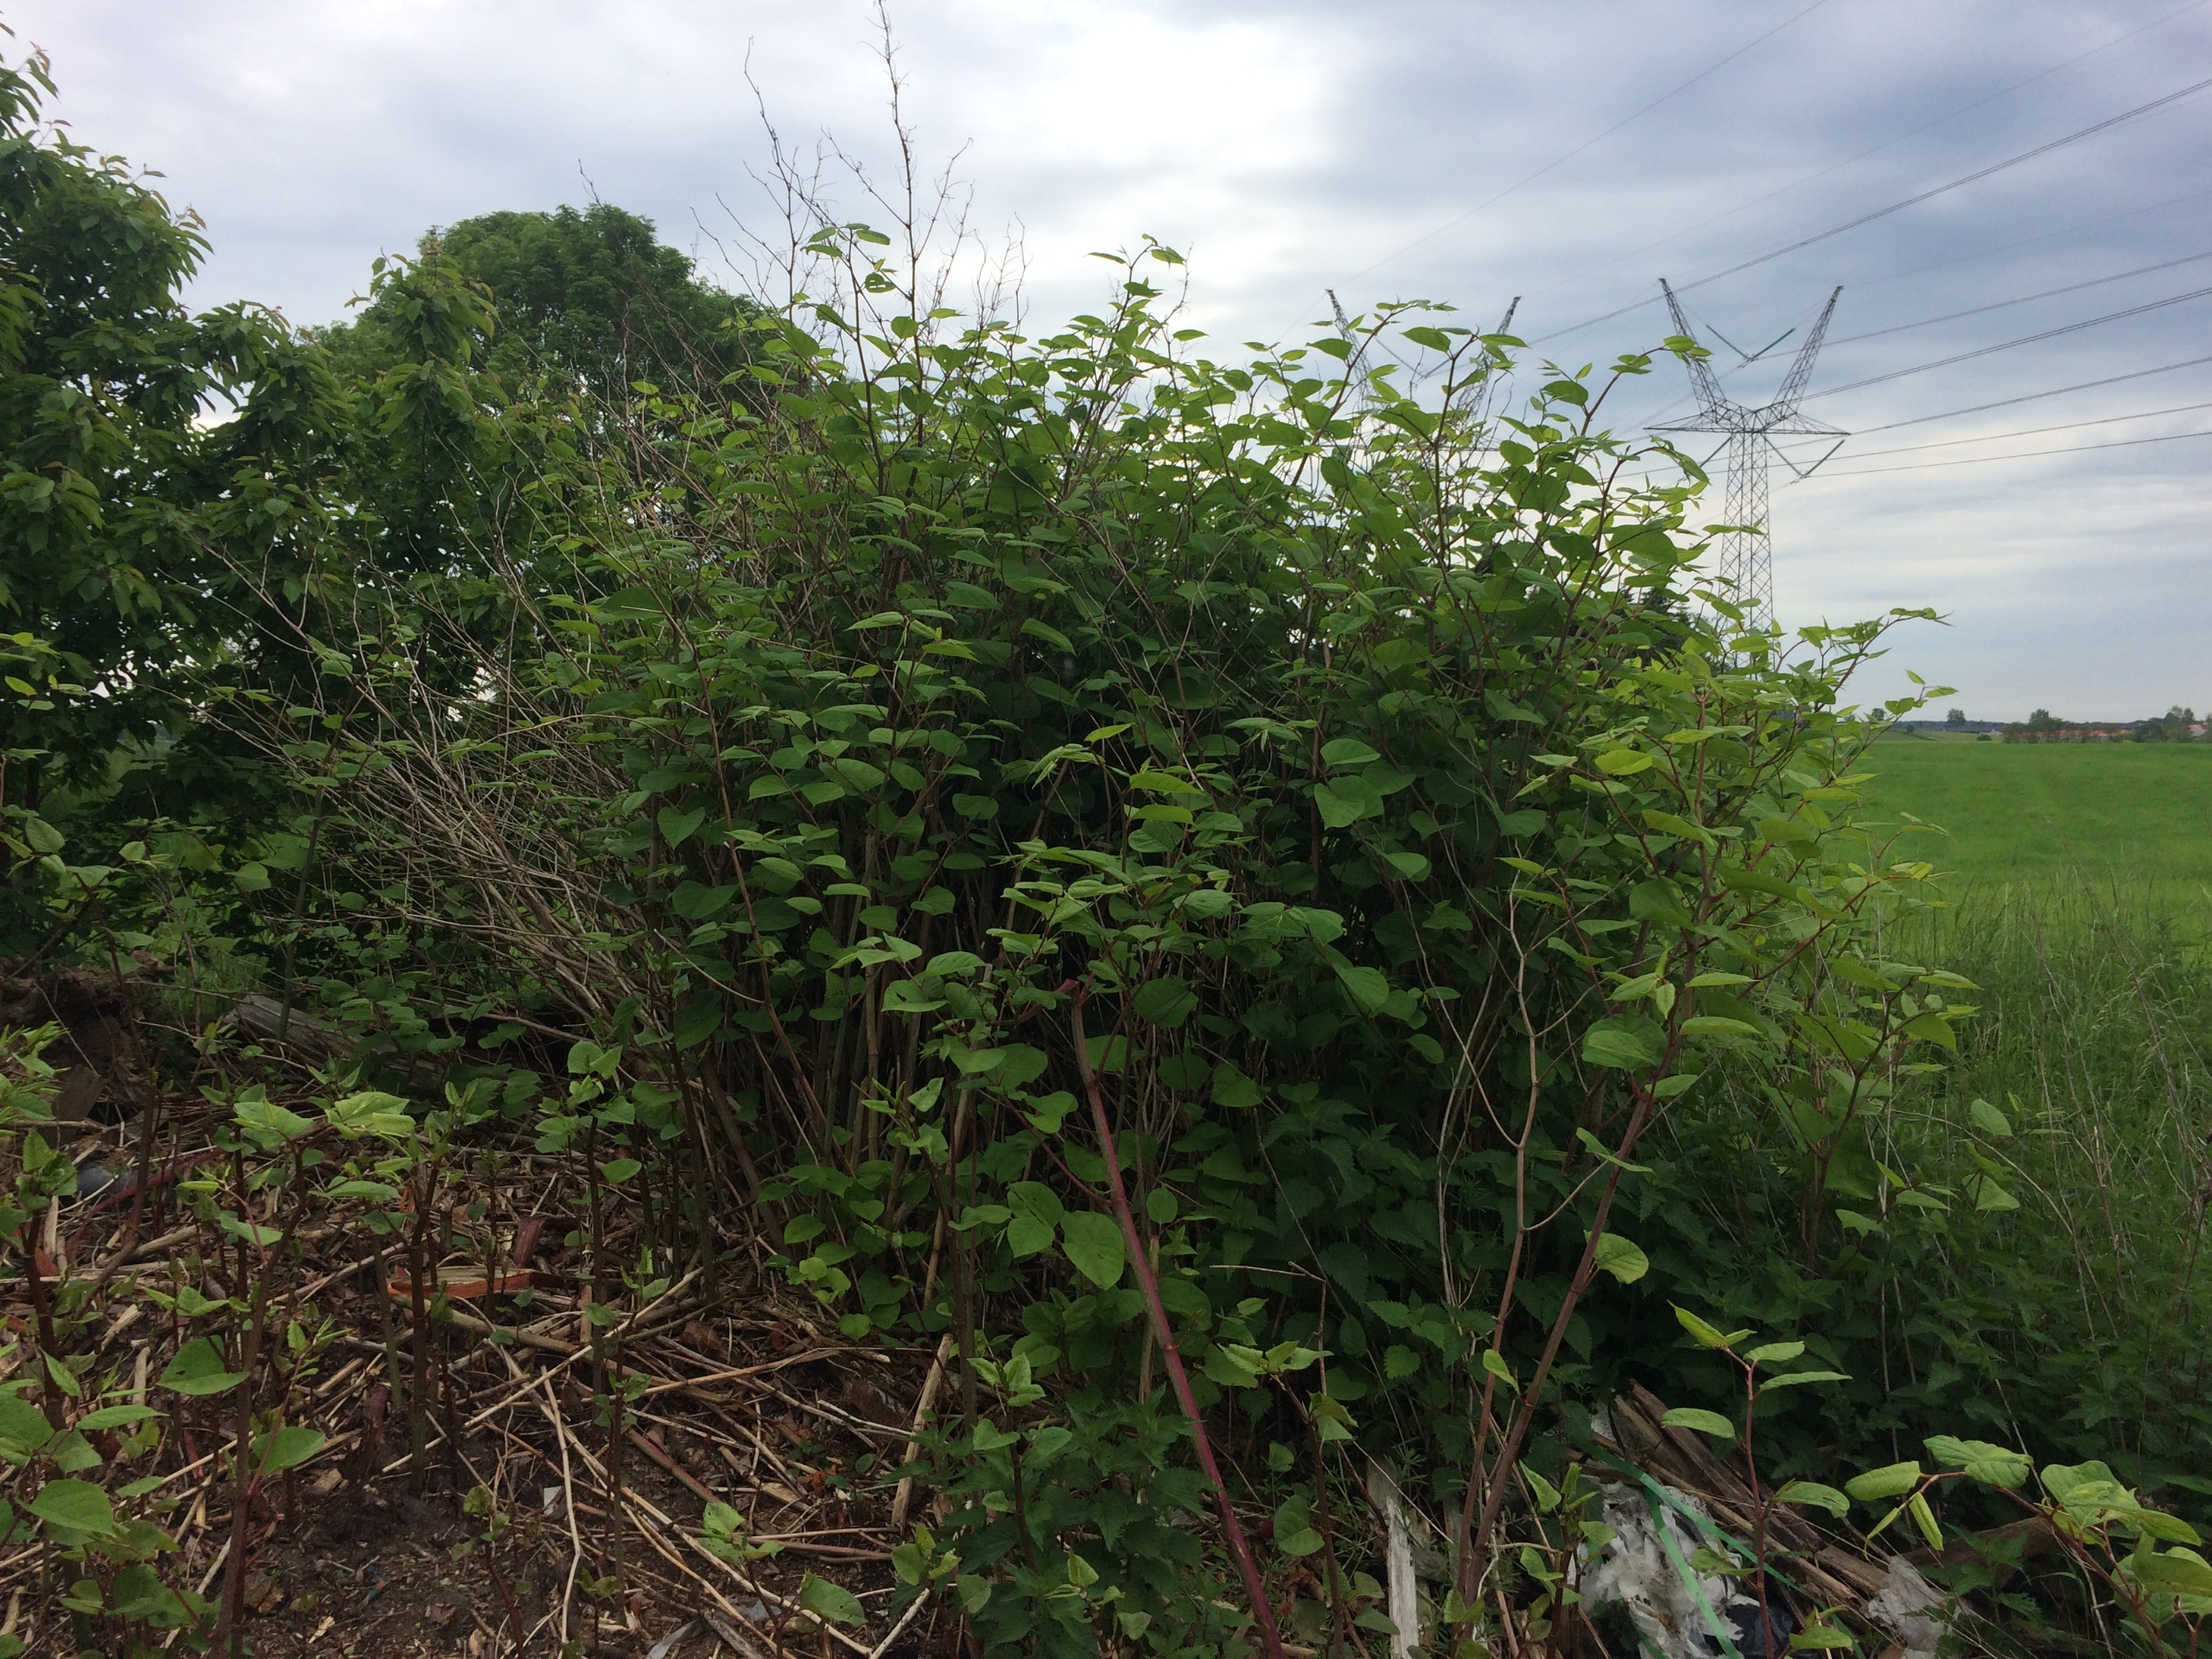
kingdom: Plantae
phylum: Tracheophyta
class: Magnoliopsida
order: Caryophyllales
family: Polygonaceae
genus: Reynoutria
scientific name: Reynoutria japonica
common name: Japan-pileurt
